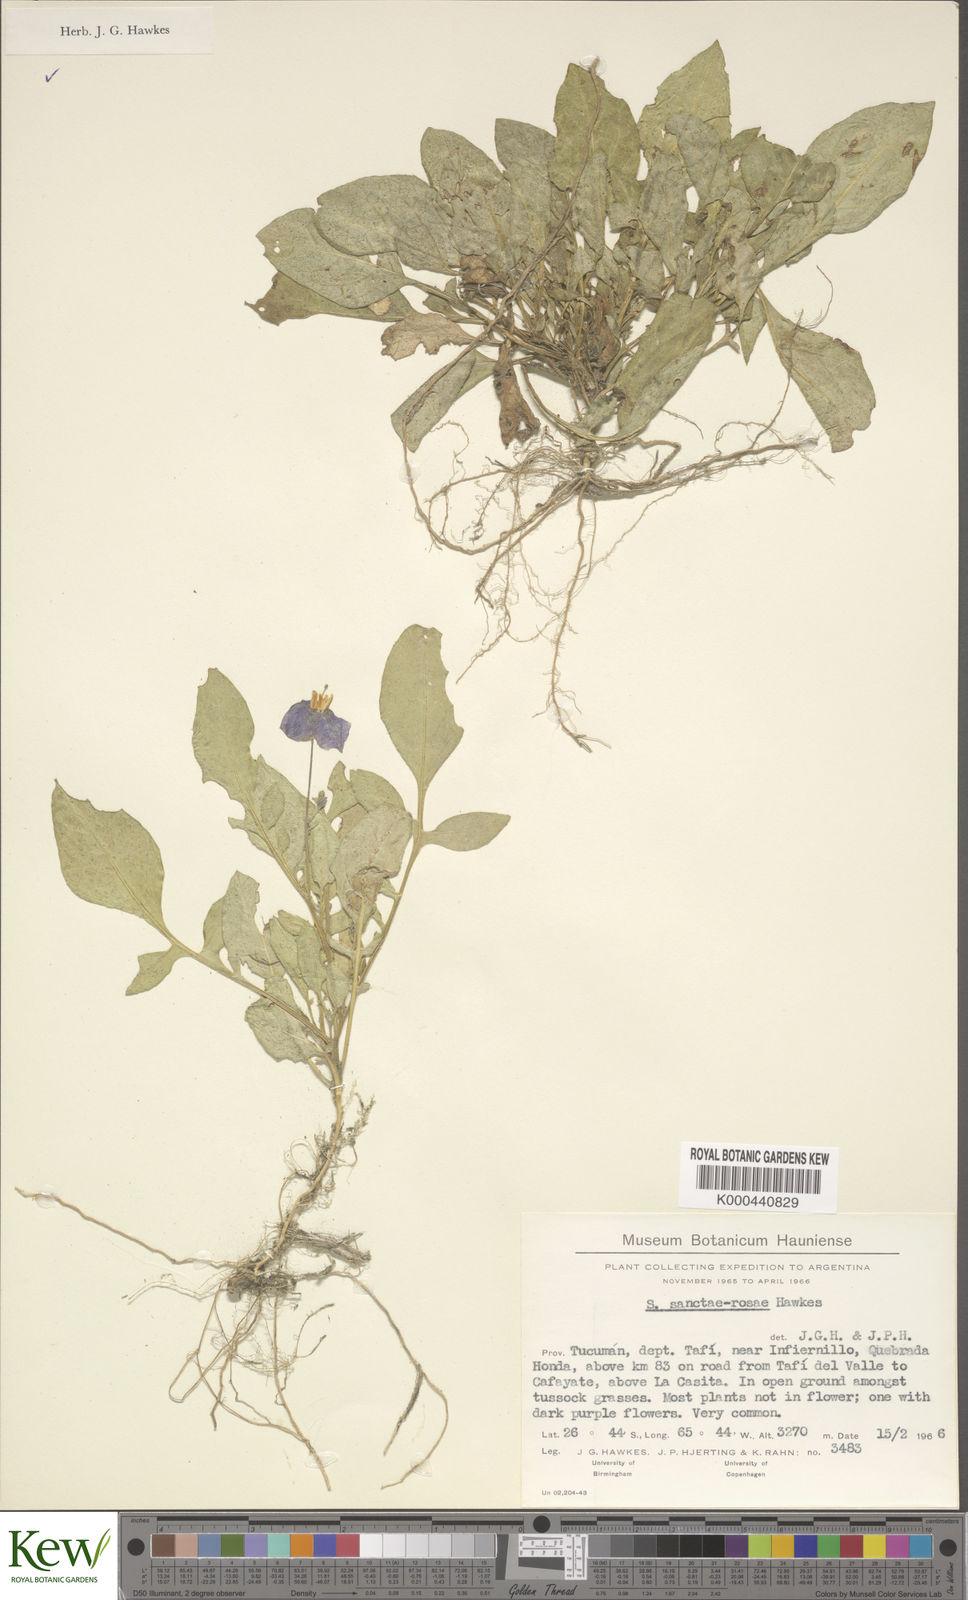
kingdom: Plantae
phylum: Tracheophyta
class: Magnoliopsida
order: Solanales
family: Solanaceae
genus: Solanum
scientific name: Solanum boliviense
